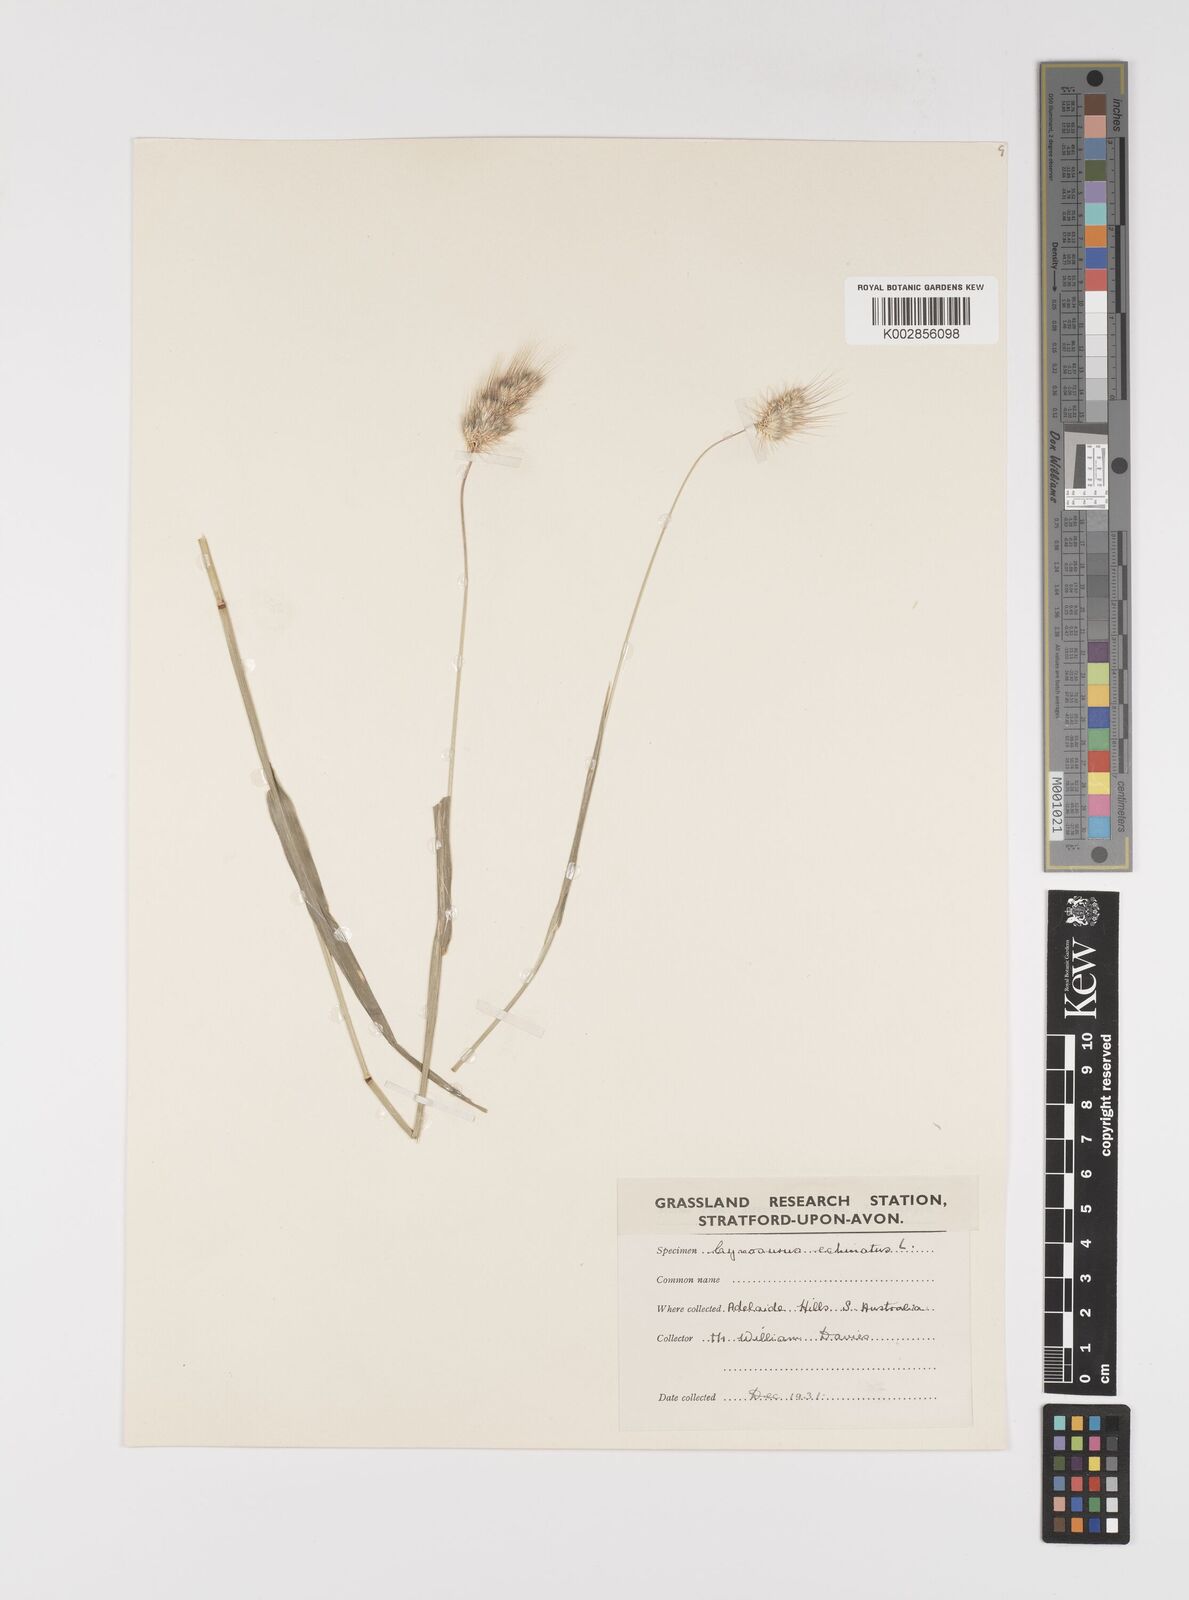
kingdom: Plantae
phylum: Tracheophyta
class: Liliopsida
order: Poales
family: Poaceae
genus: Cynosurus
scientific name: Cynosurus echinatus
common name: Rough dog's-tail
